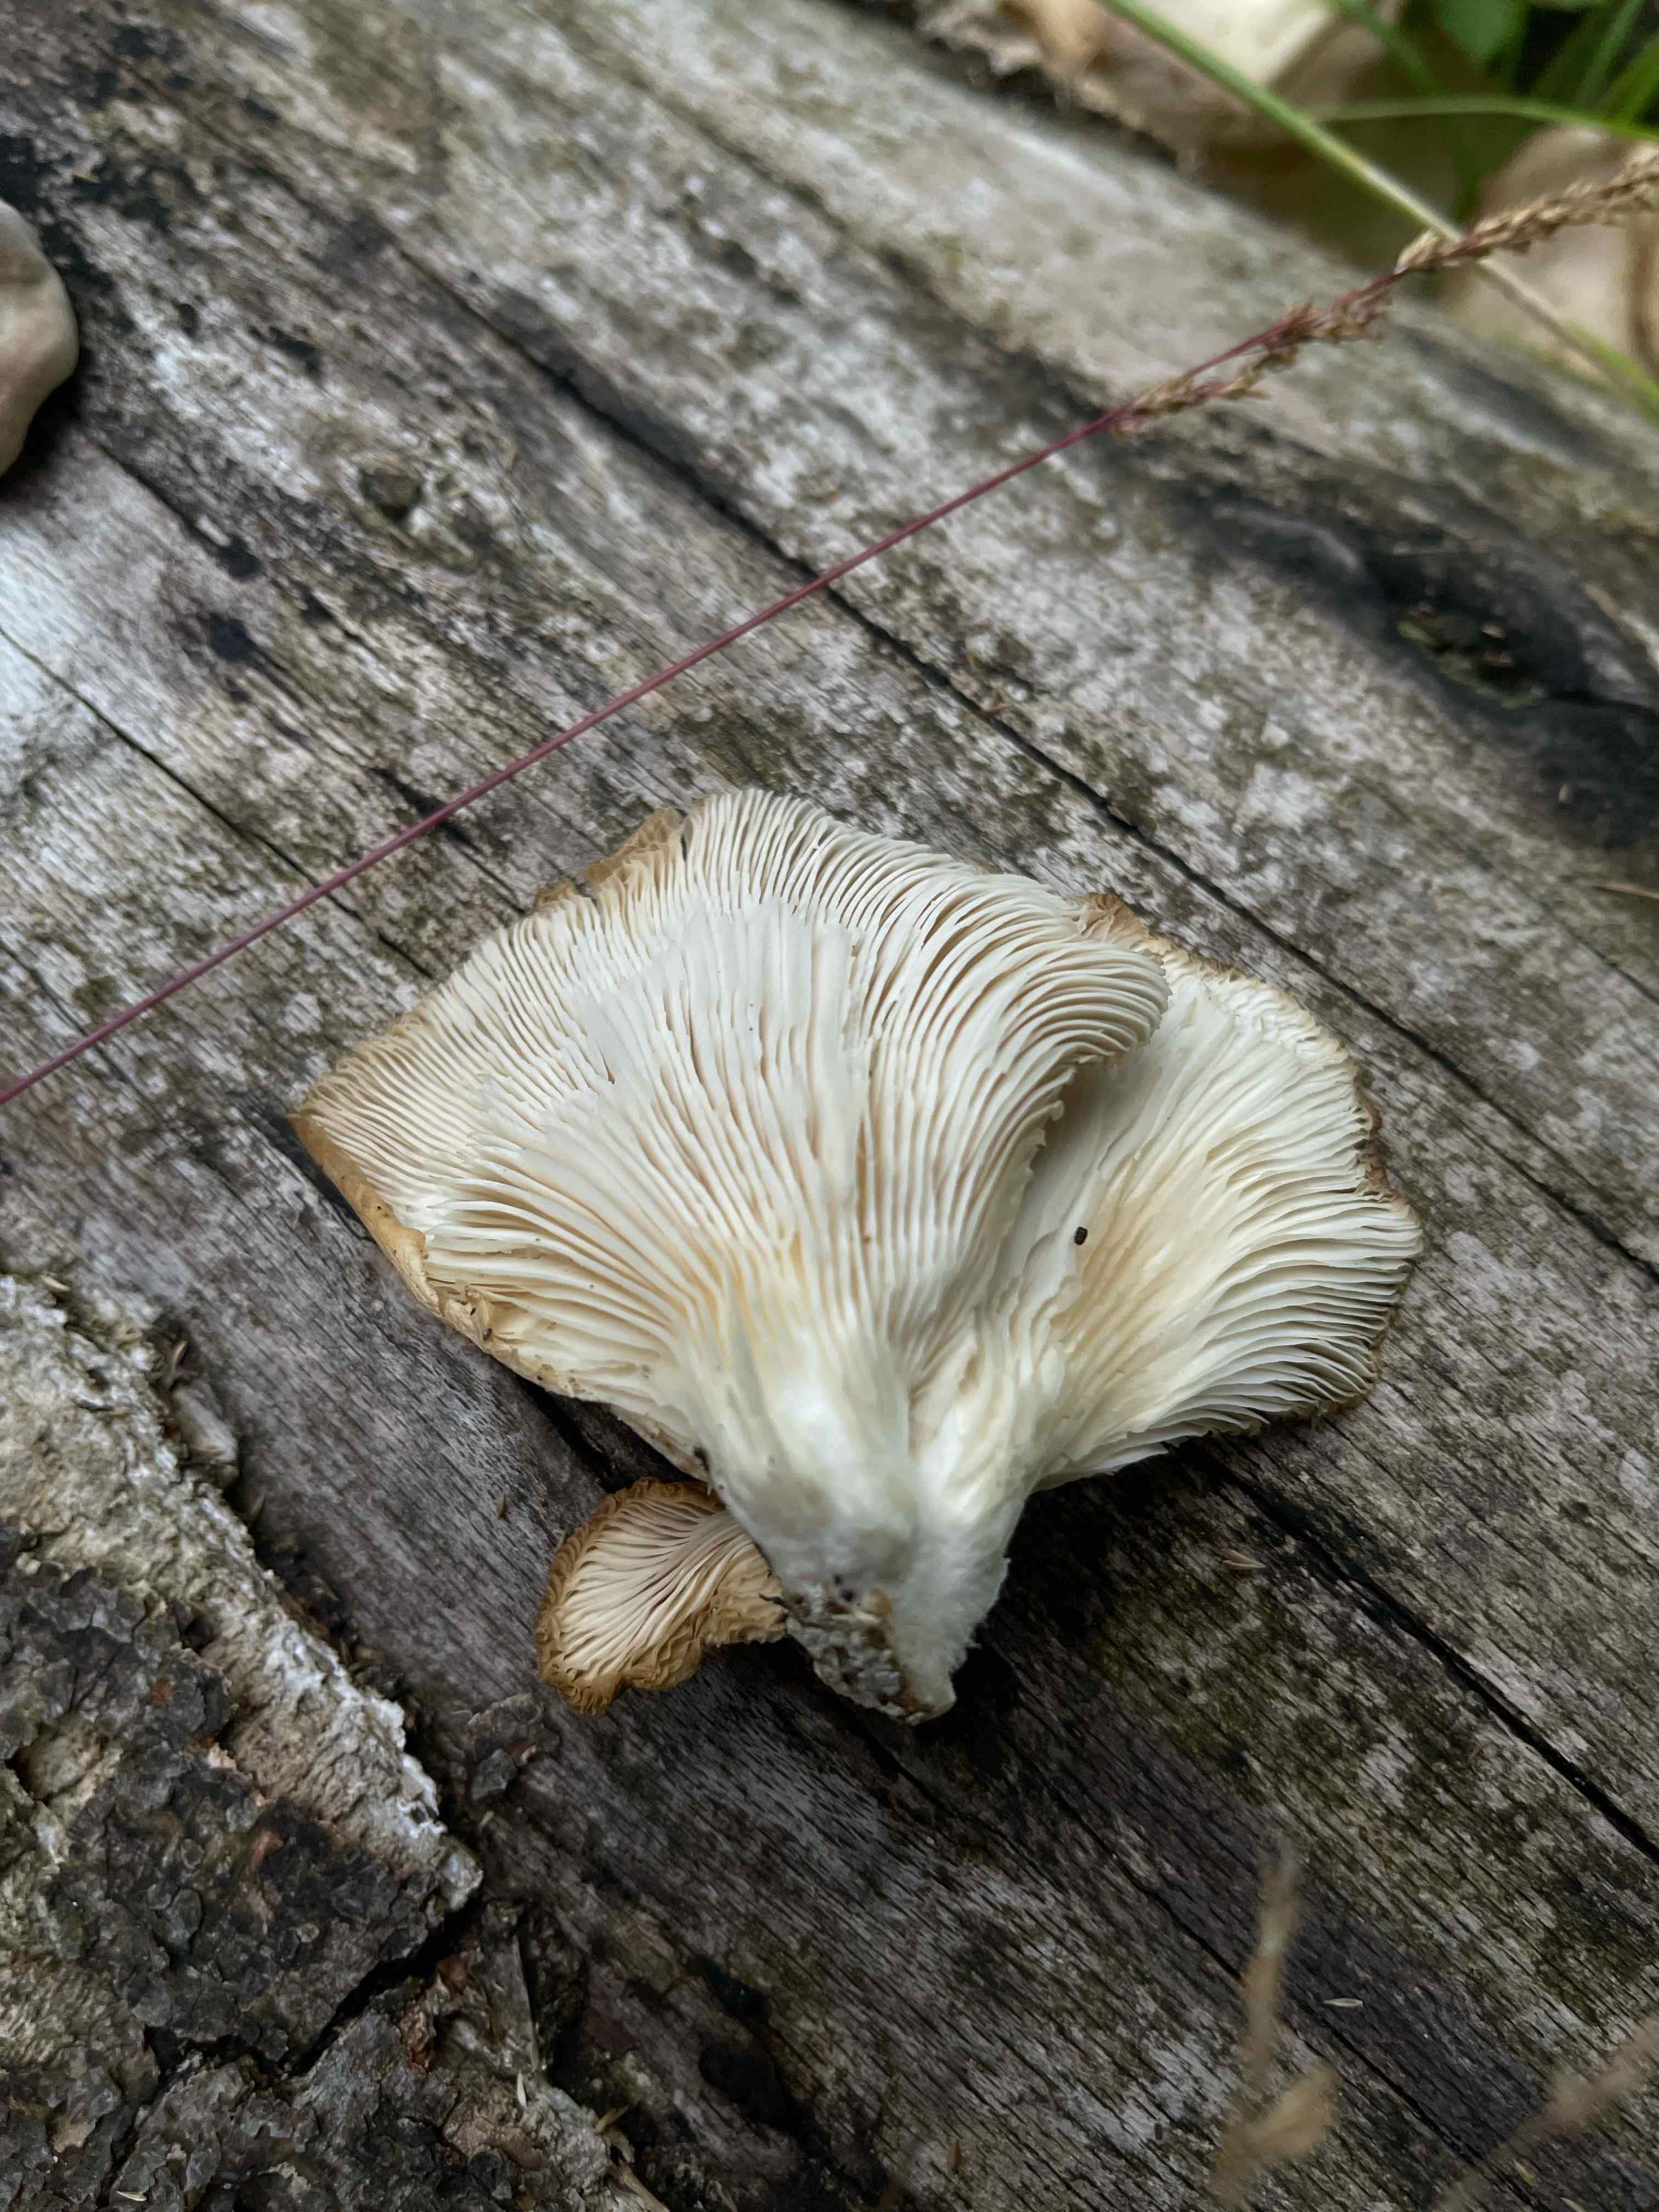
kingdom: Fungi
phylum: Basidiomycota
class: Agaricomycetes
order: Agaricales
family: Pleurotaceae
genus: Pleurotus
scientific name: Pleurotus pulmonarius
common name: sommer-østershat
